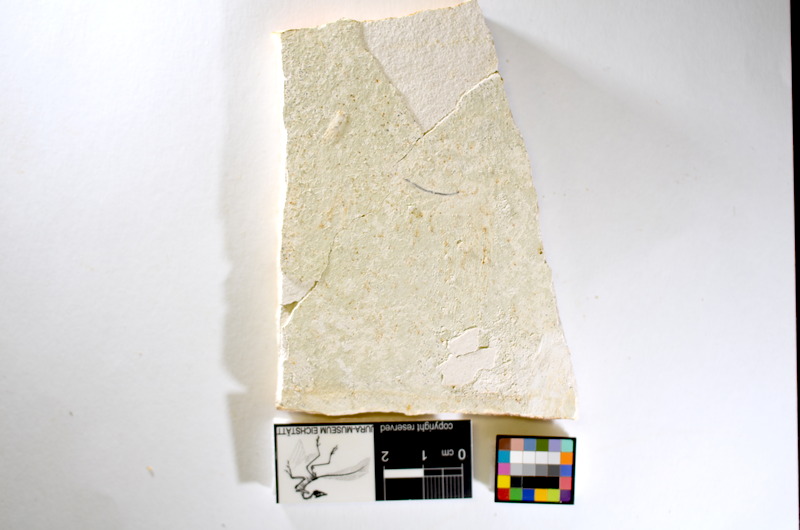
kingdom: Animalia
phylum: Chordata
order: Salmoniformes
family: Orthogonikleithridae
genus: Orthogonikleithrus
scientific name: Orthogonikleithrus hoelli
